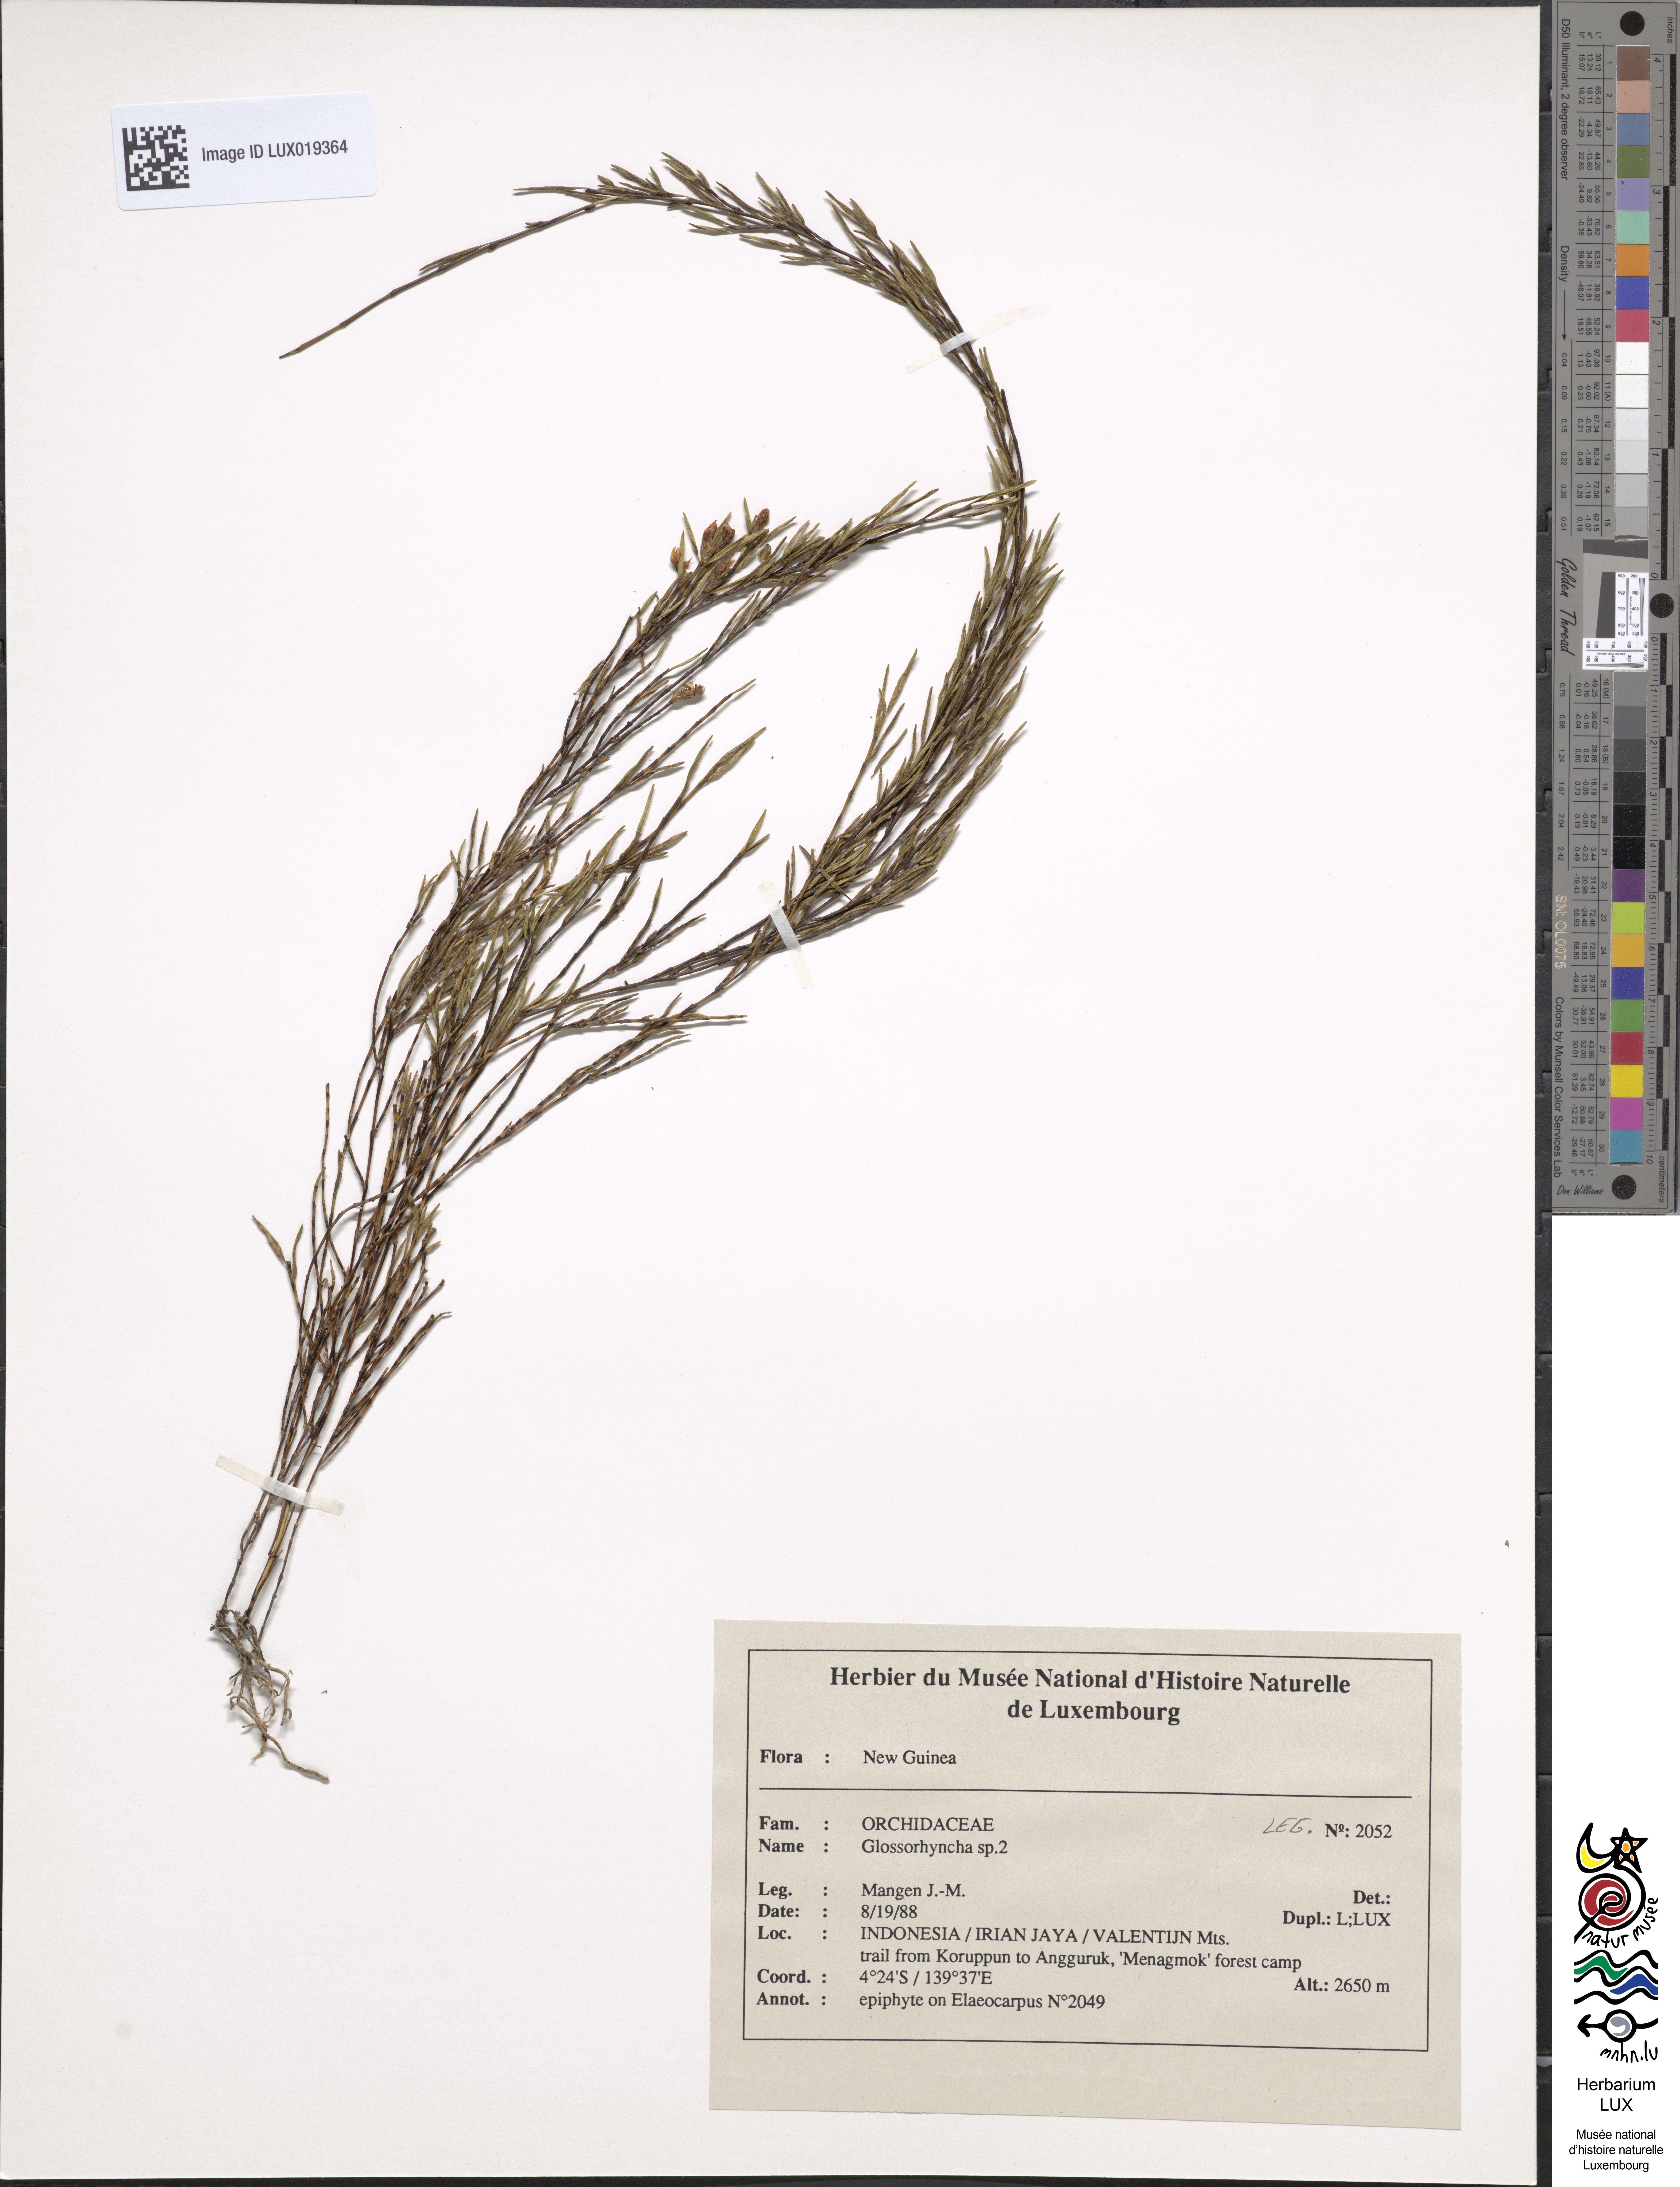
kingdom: Plantae
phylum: Tracheophyta
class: Liliopsida
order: Asparagales
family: Orchidaceae
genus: Glomera
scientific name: Glomera
